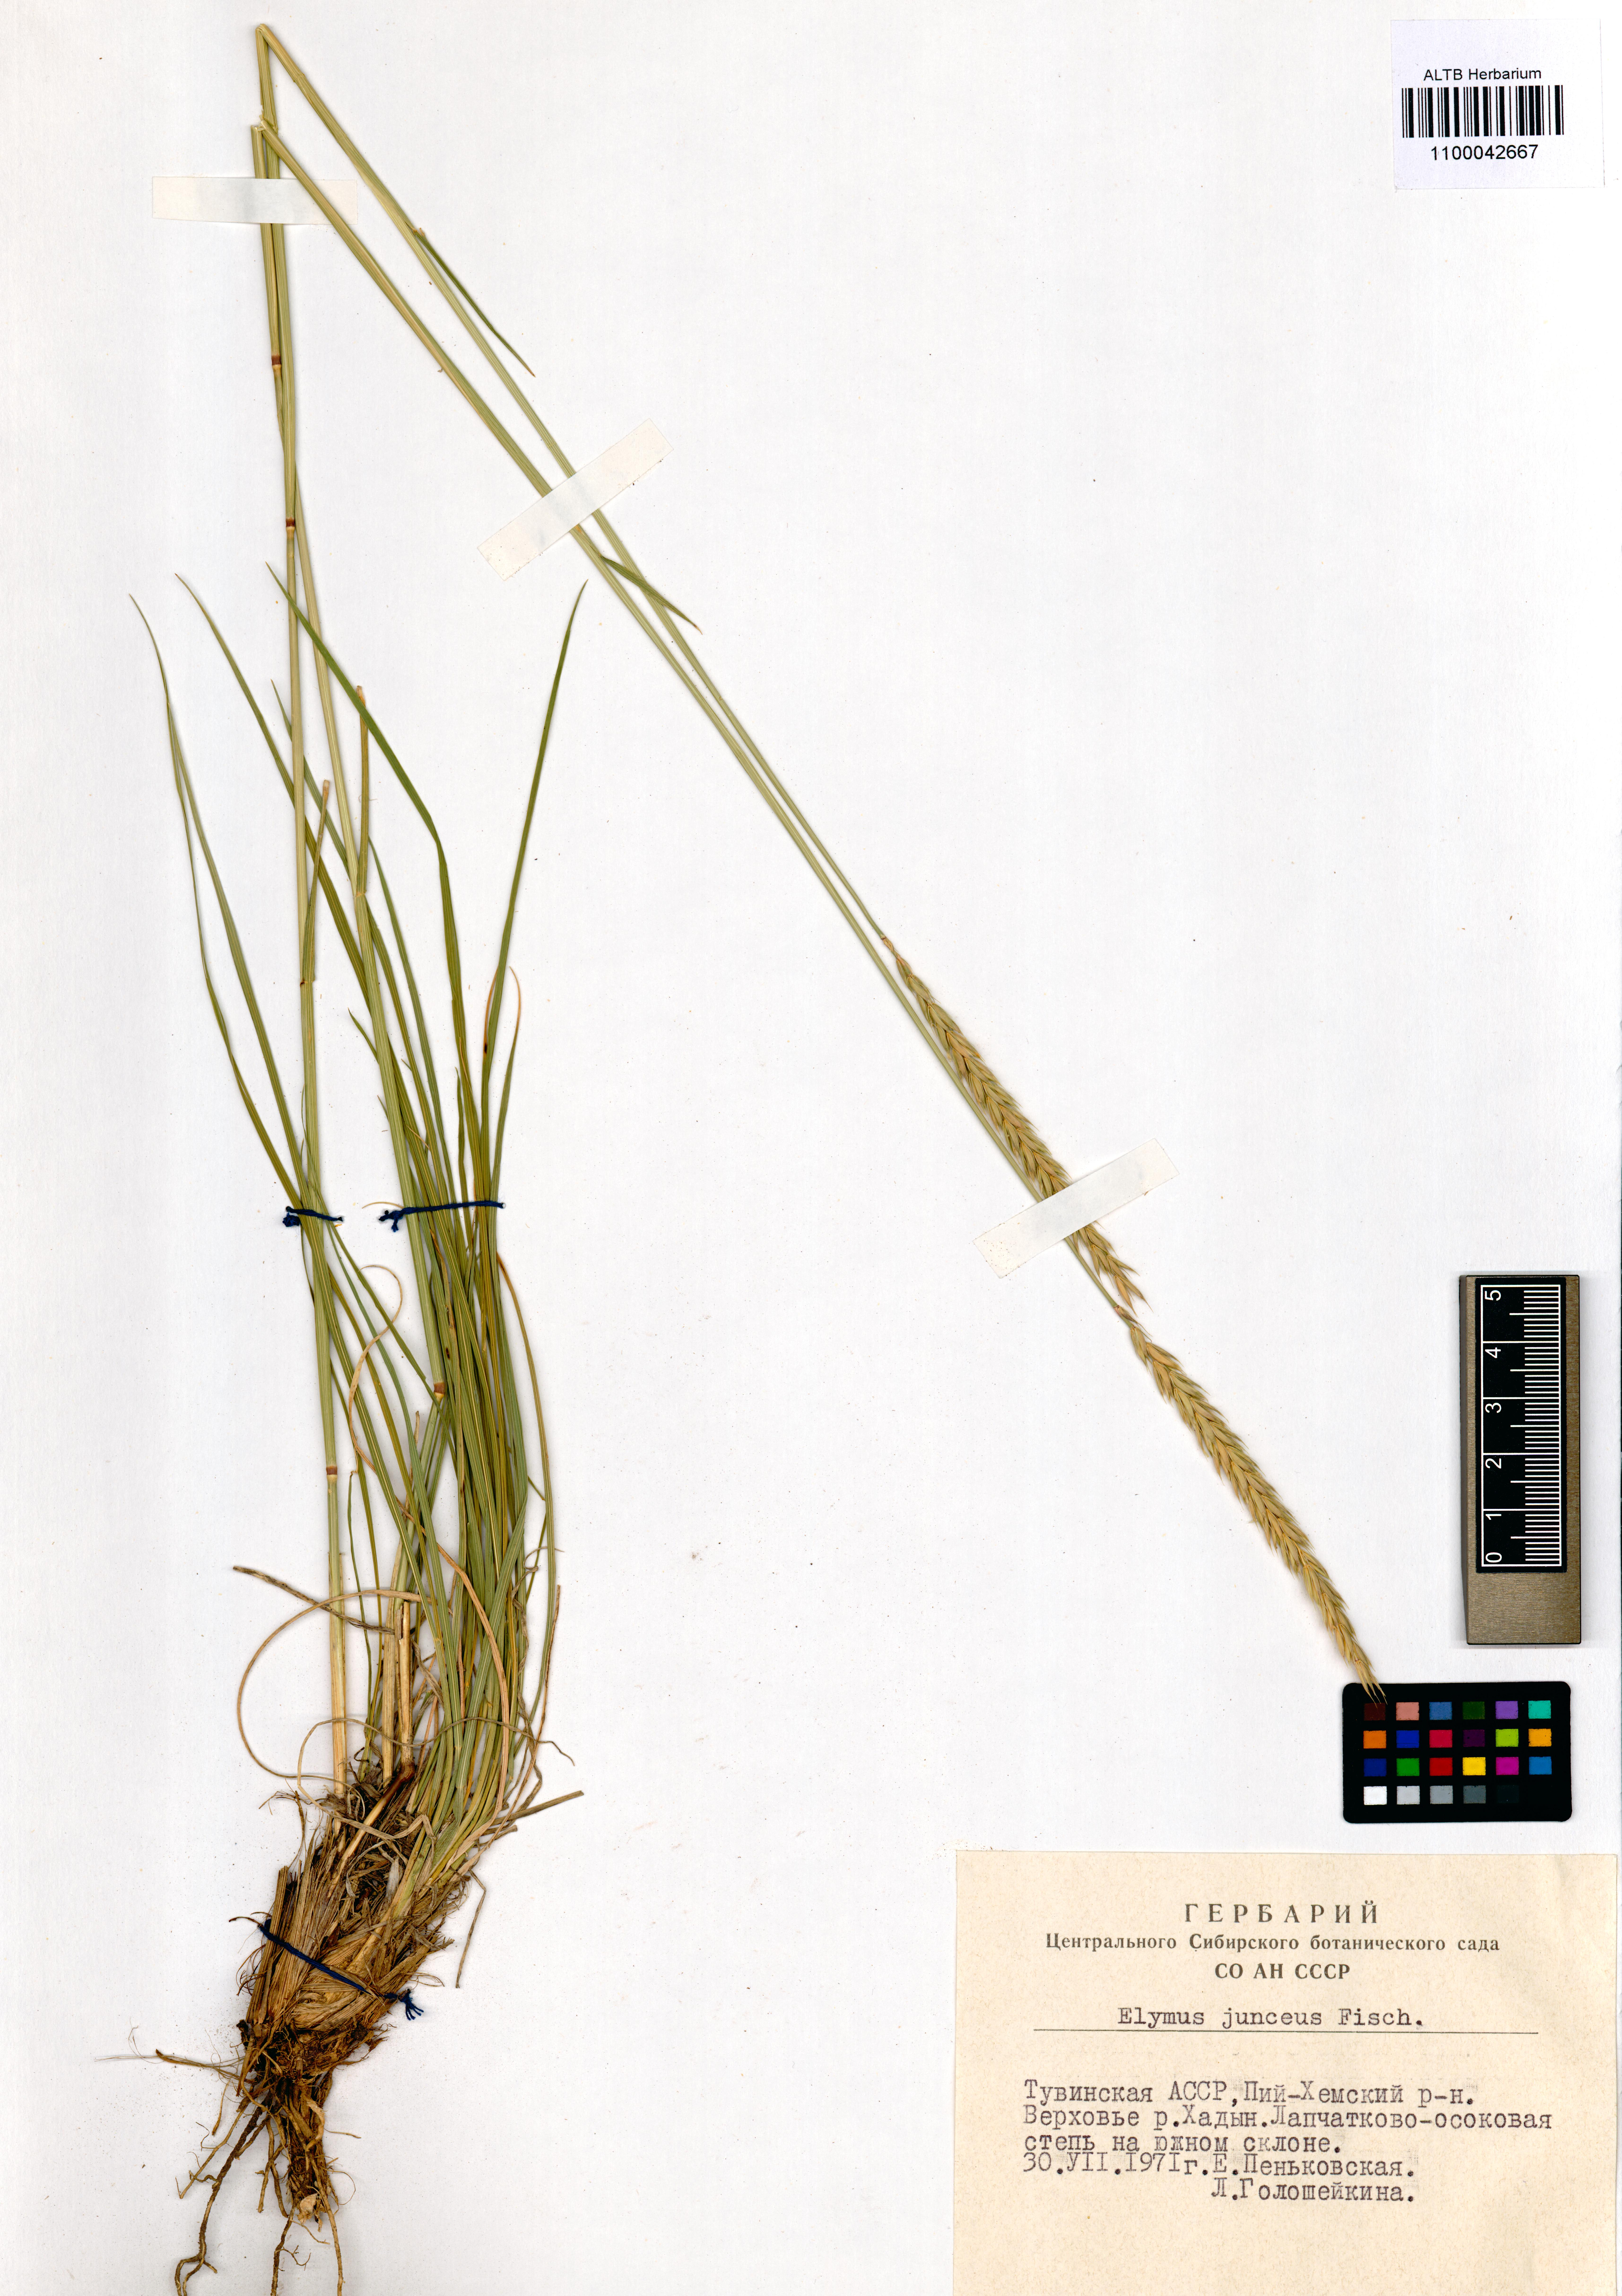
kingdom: Plantae
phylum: Tracheophyta
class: Liliopsida
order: Poales
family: Poaceae
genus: Psathyrostachys
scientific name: Psathyrostachys juncea
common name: Russian wildrye
